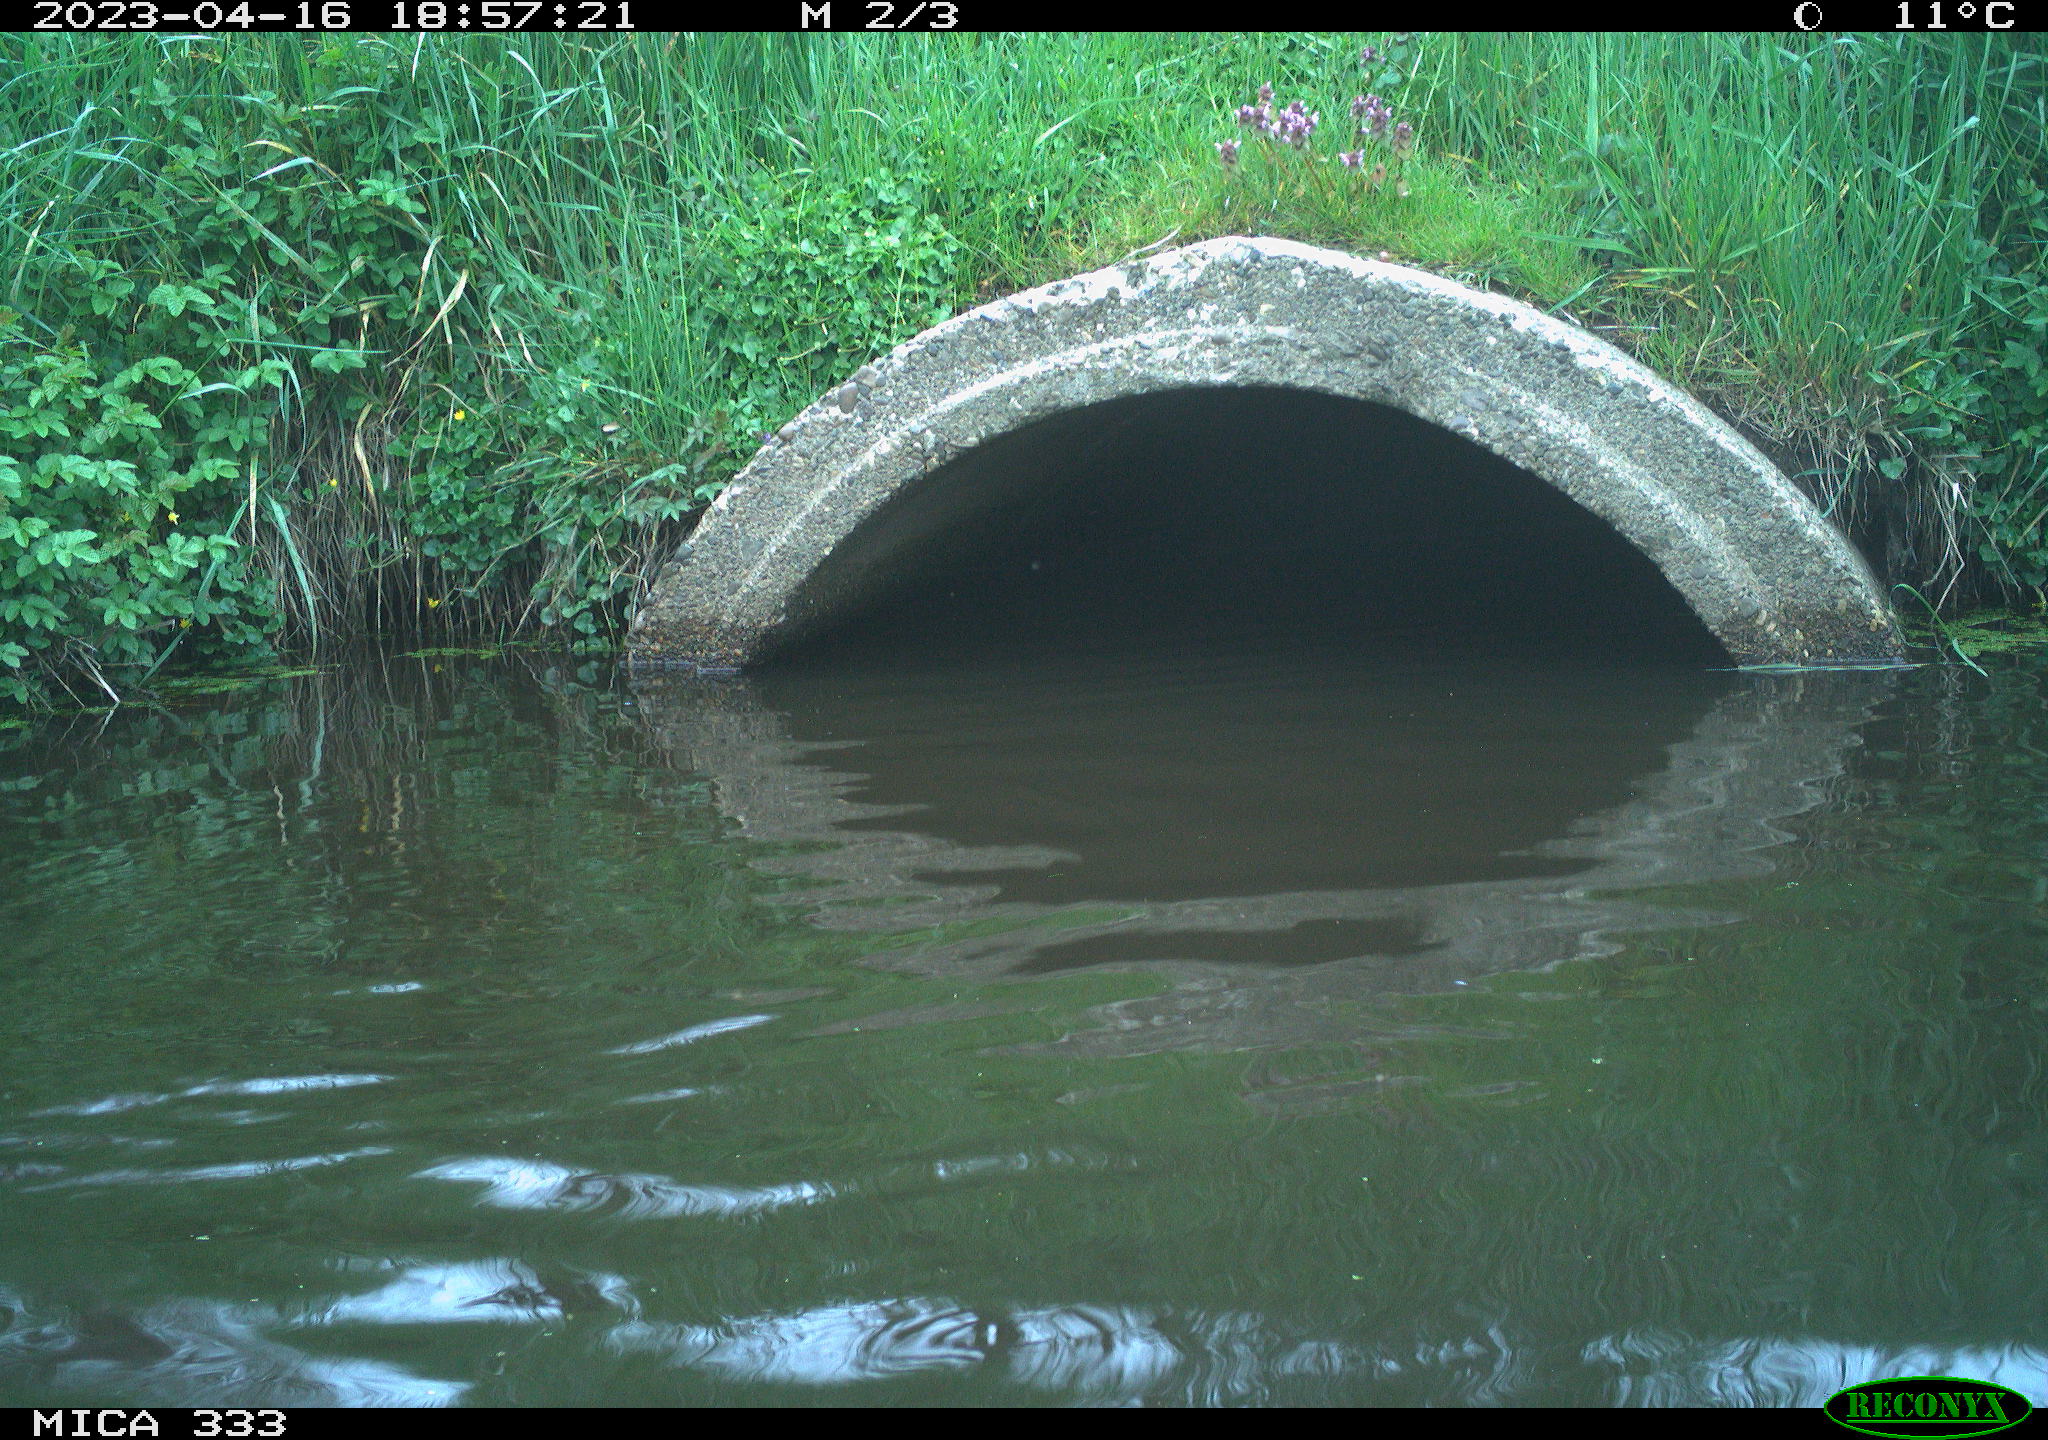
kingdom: Animalia
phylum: Chordata
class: Aves
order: Anseriformes
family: Anatidae
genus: Anas
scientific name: Anas
